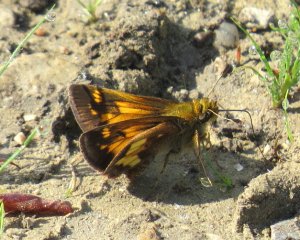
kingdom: Animalia
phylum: Arthropoda
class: Insecta
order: Lepidoptera
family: Hesperiidae
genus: Lon
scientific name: Lon hobomok
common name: Hobomok Skipper
